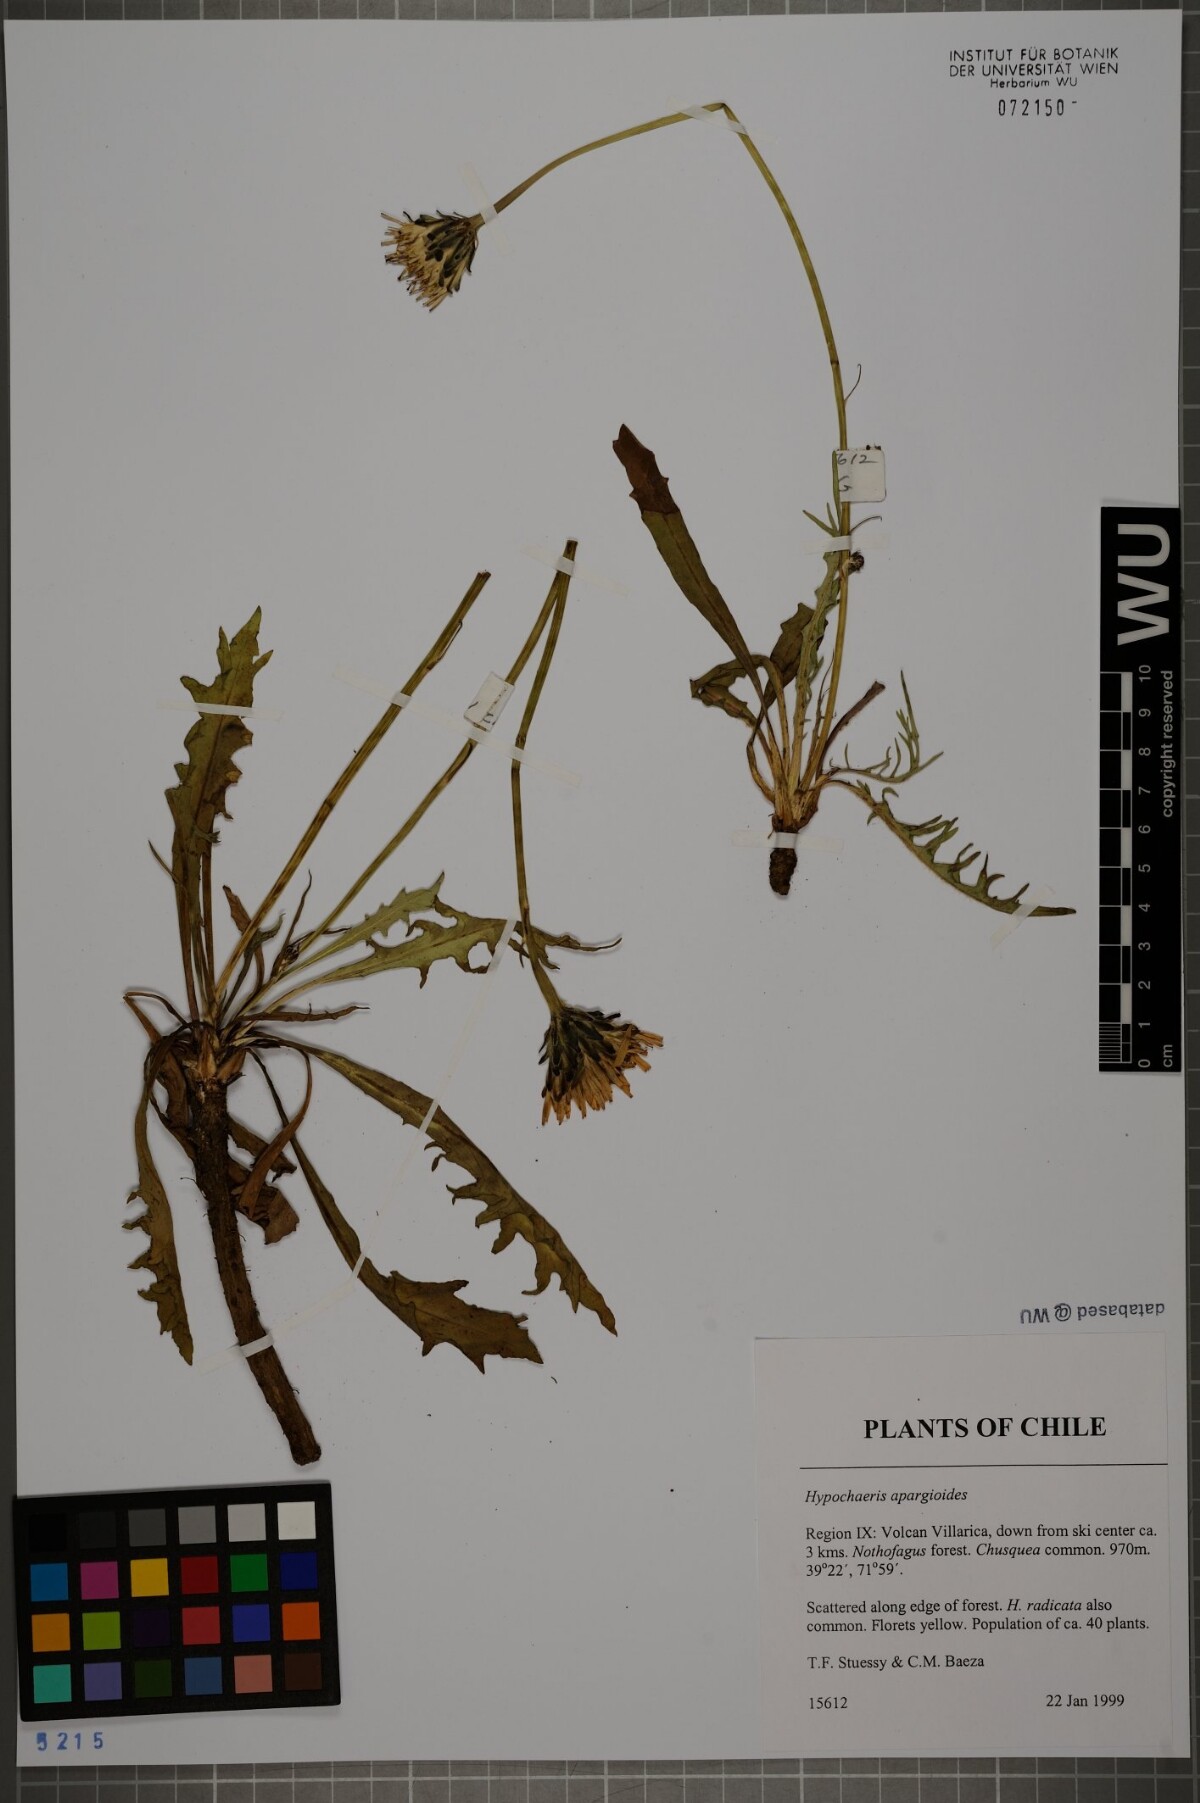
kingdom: Plantae
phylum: Tracheophyta
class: Magnoliopsida
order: Asterales
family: Asteraceae
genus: Hypochaeris
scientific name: Hypochaeris apargioides
